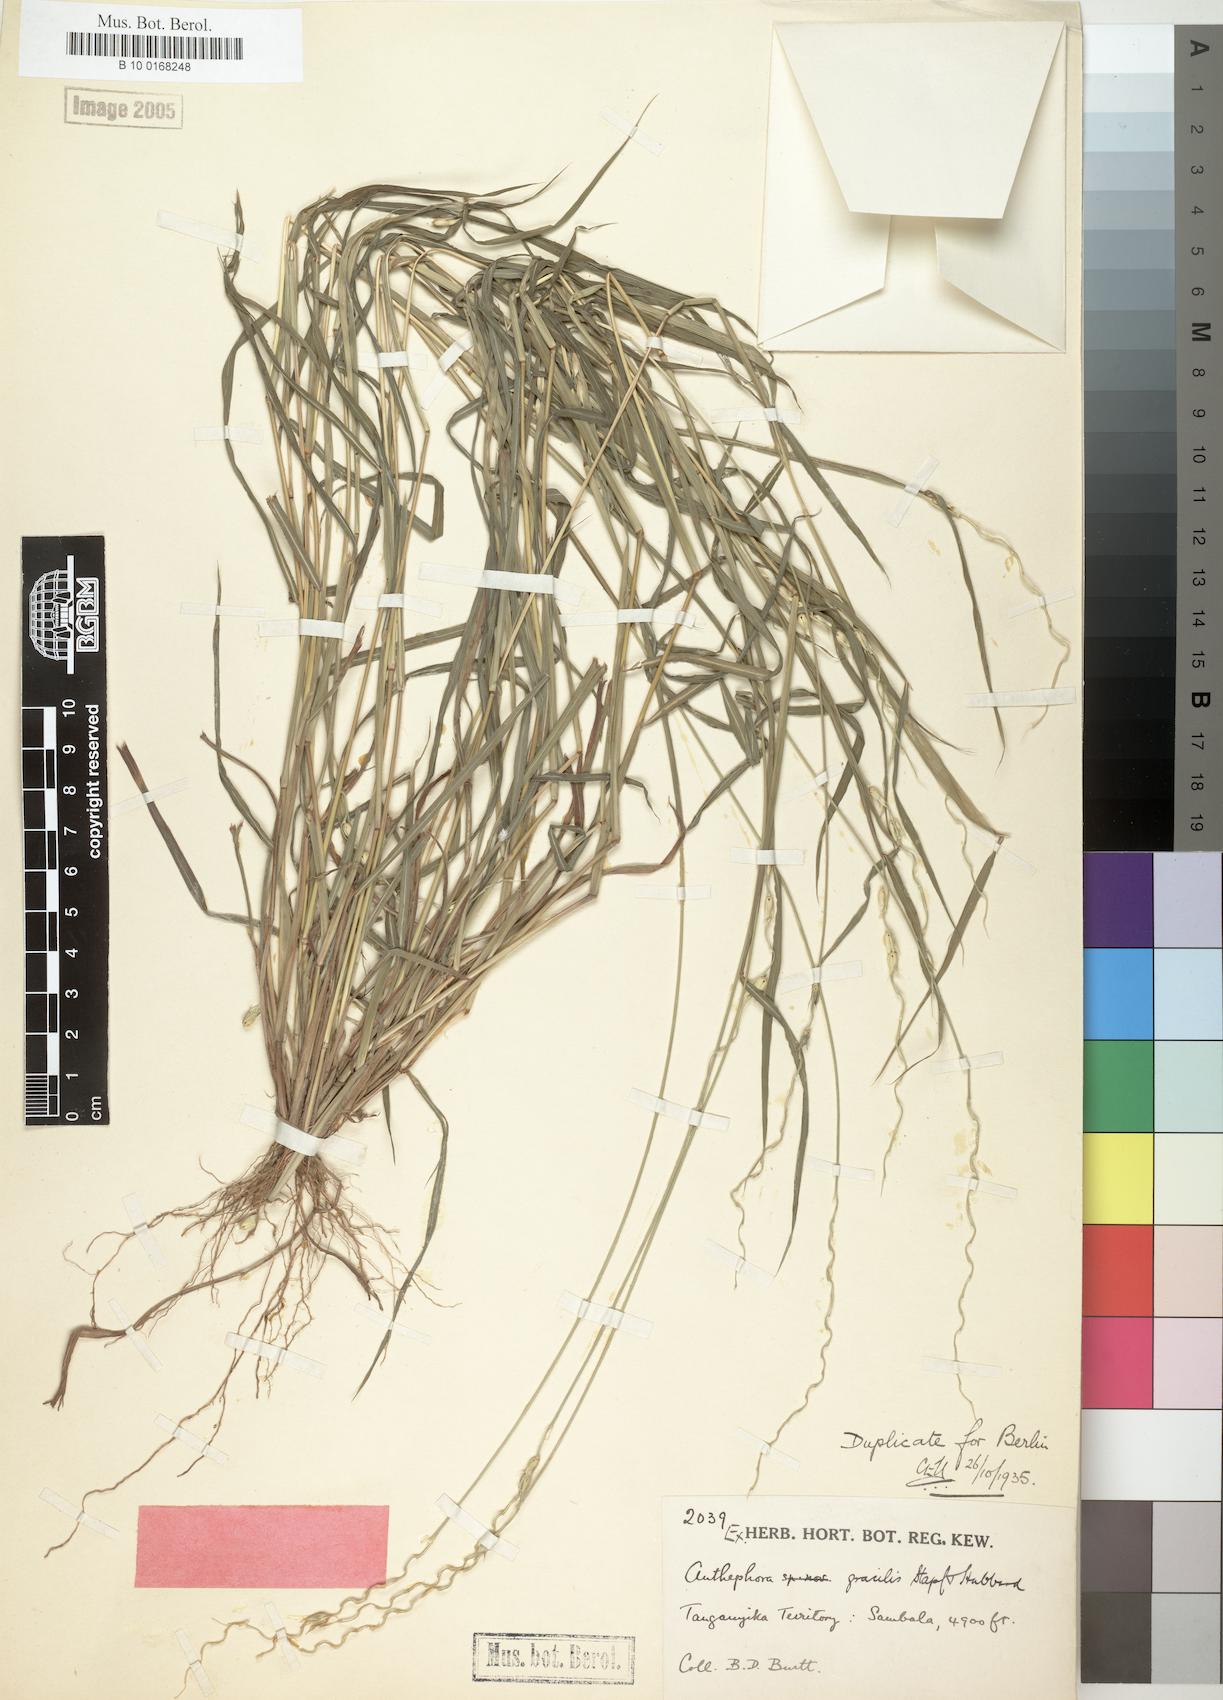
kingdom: Plantae
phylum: Tracheophyta
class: Liliopsida
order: Poales
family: Poaceae
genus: Anthephora
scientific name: Anthephora truncata
